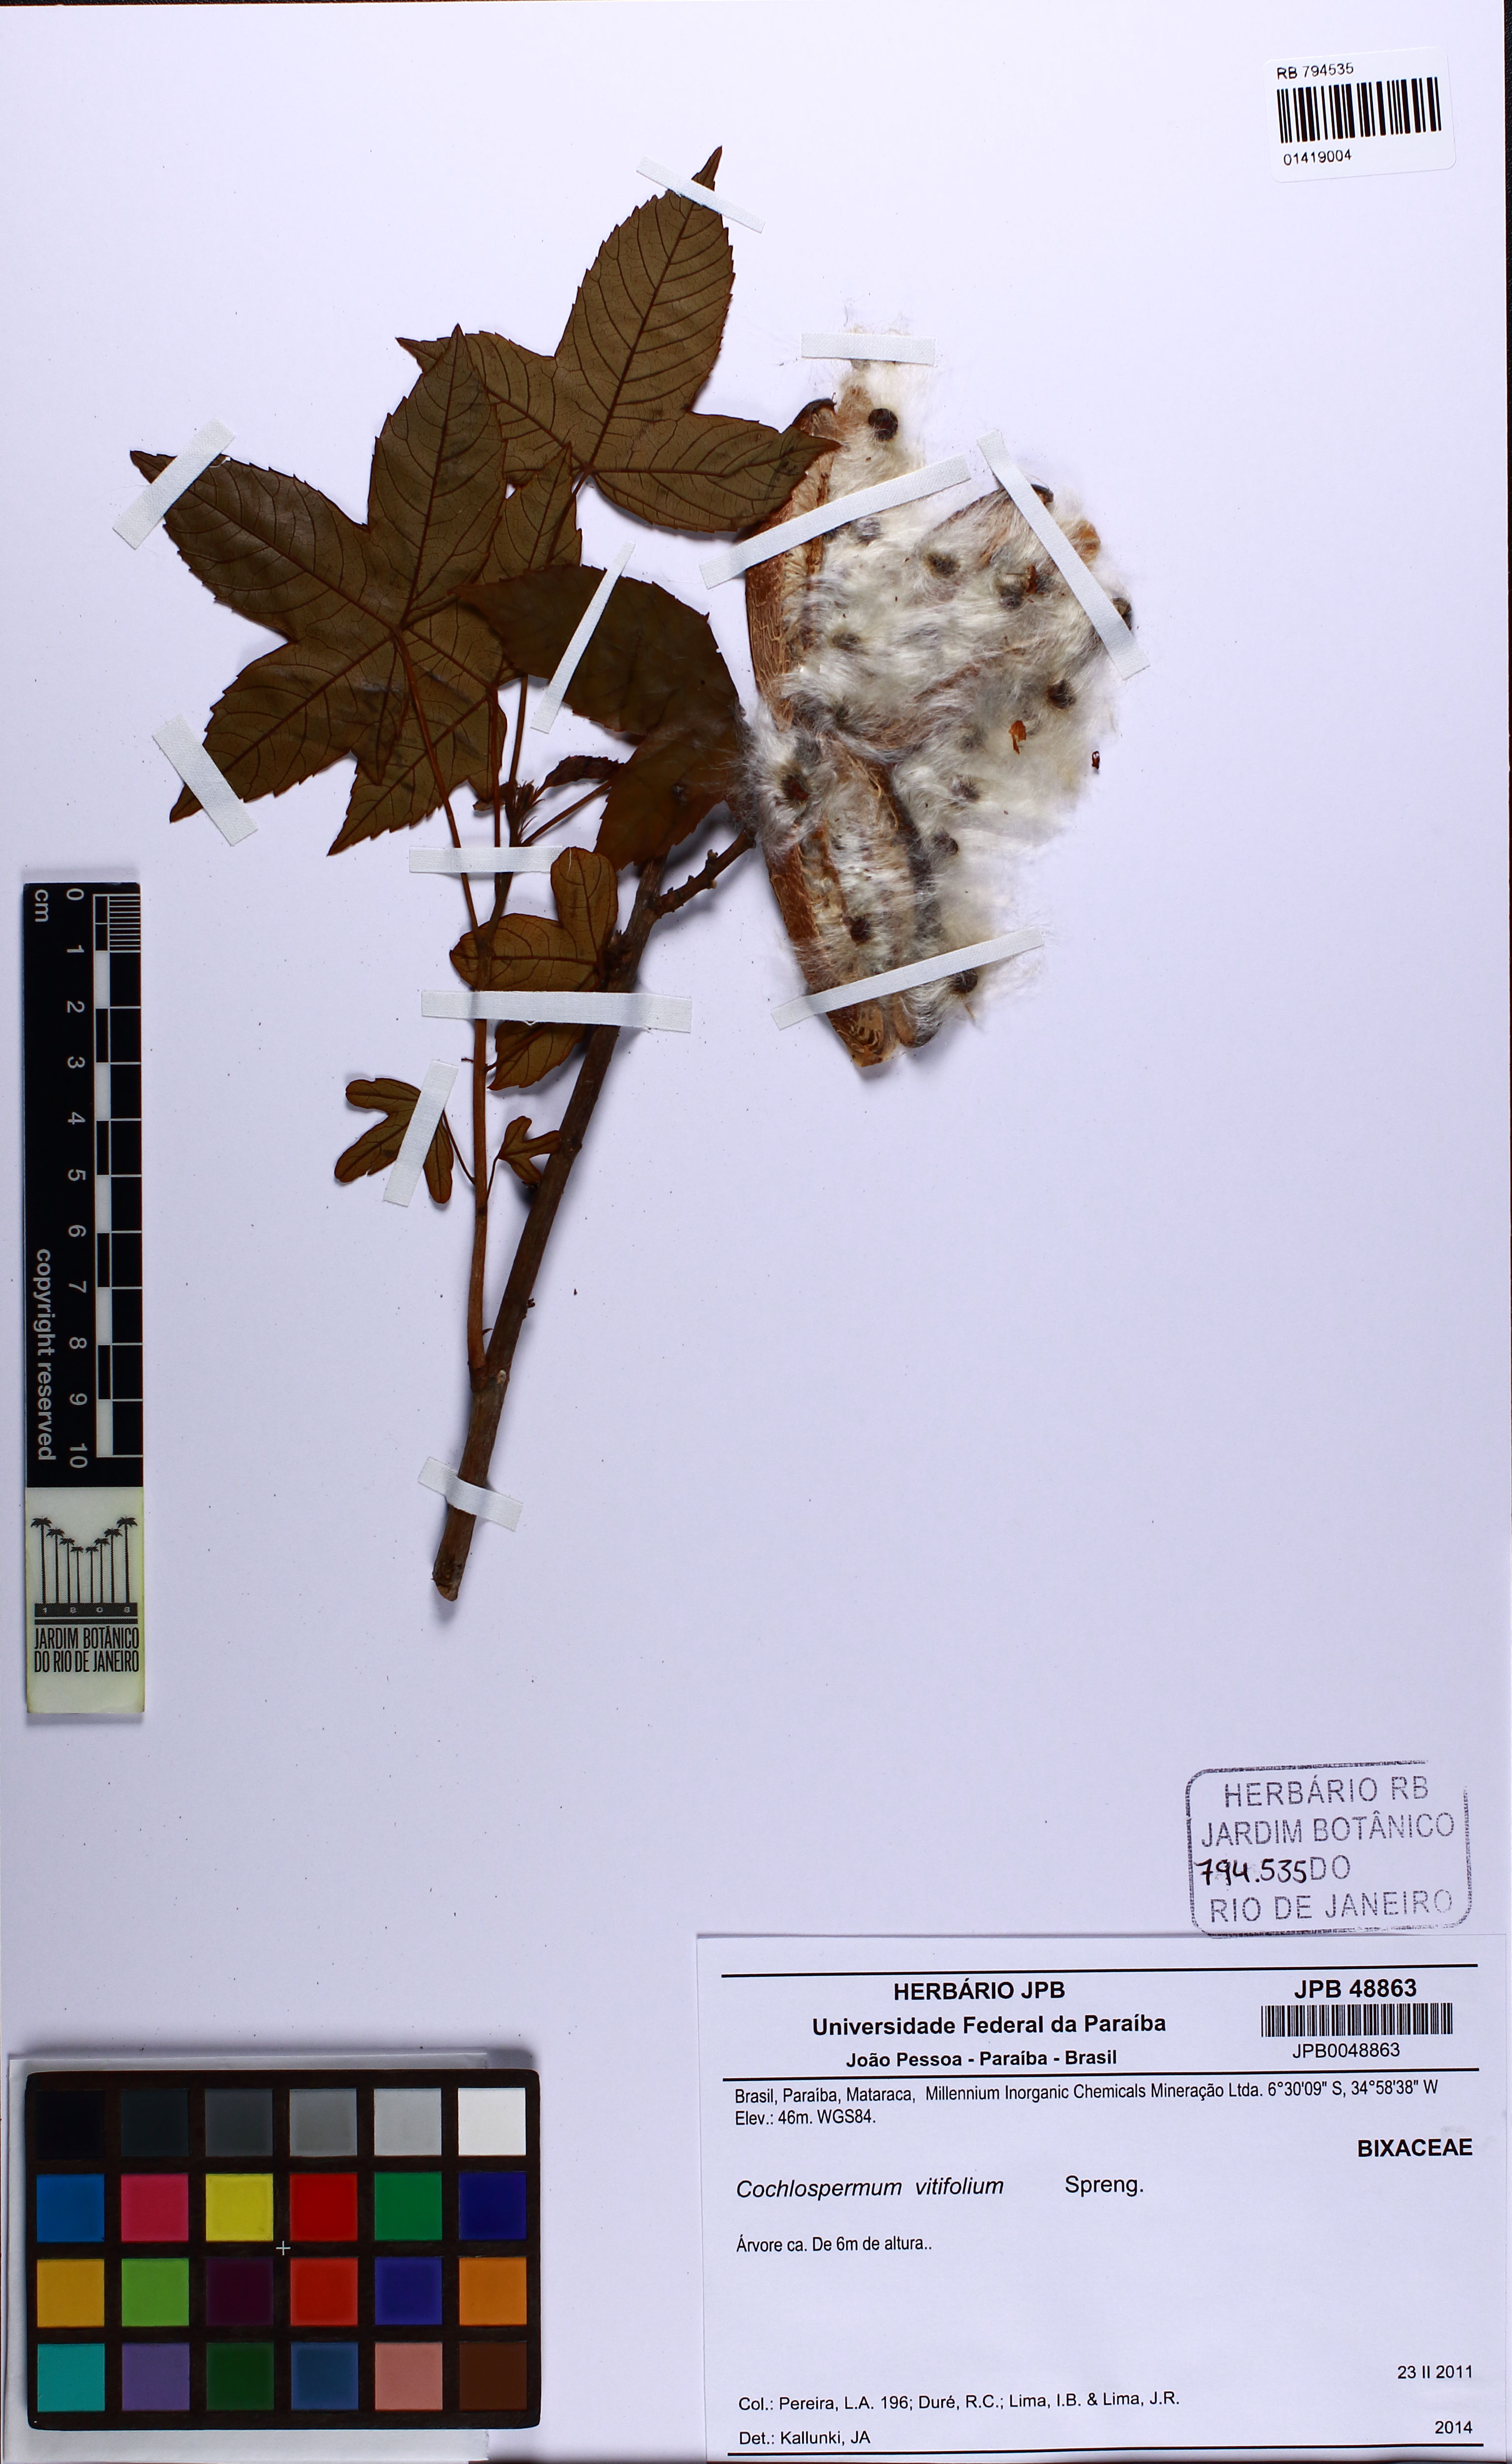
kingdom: Plantae
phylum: Tracheophyta
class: Magnoliopsida
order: Malvales
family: Cochlospermaceae
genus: Cochlospermum
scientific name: Cochlospermum vitifolium
